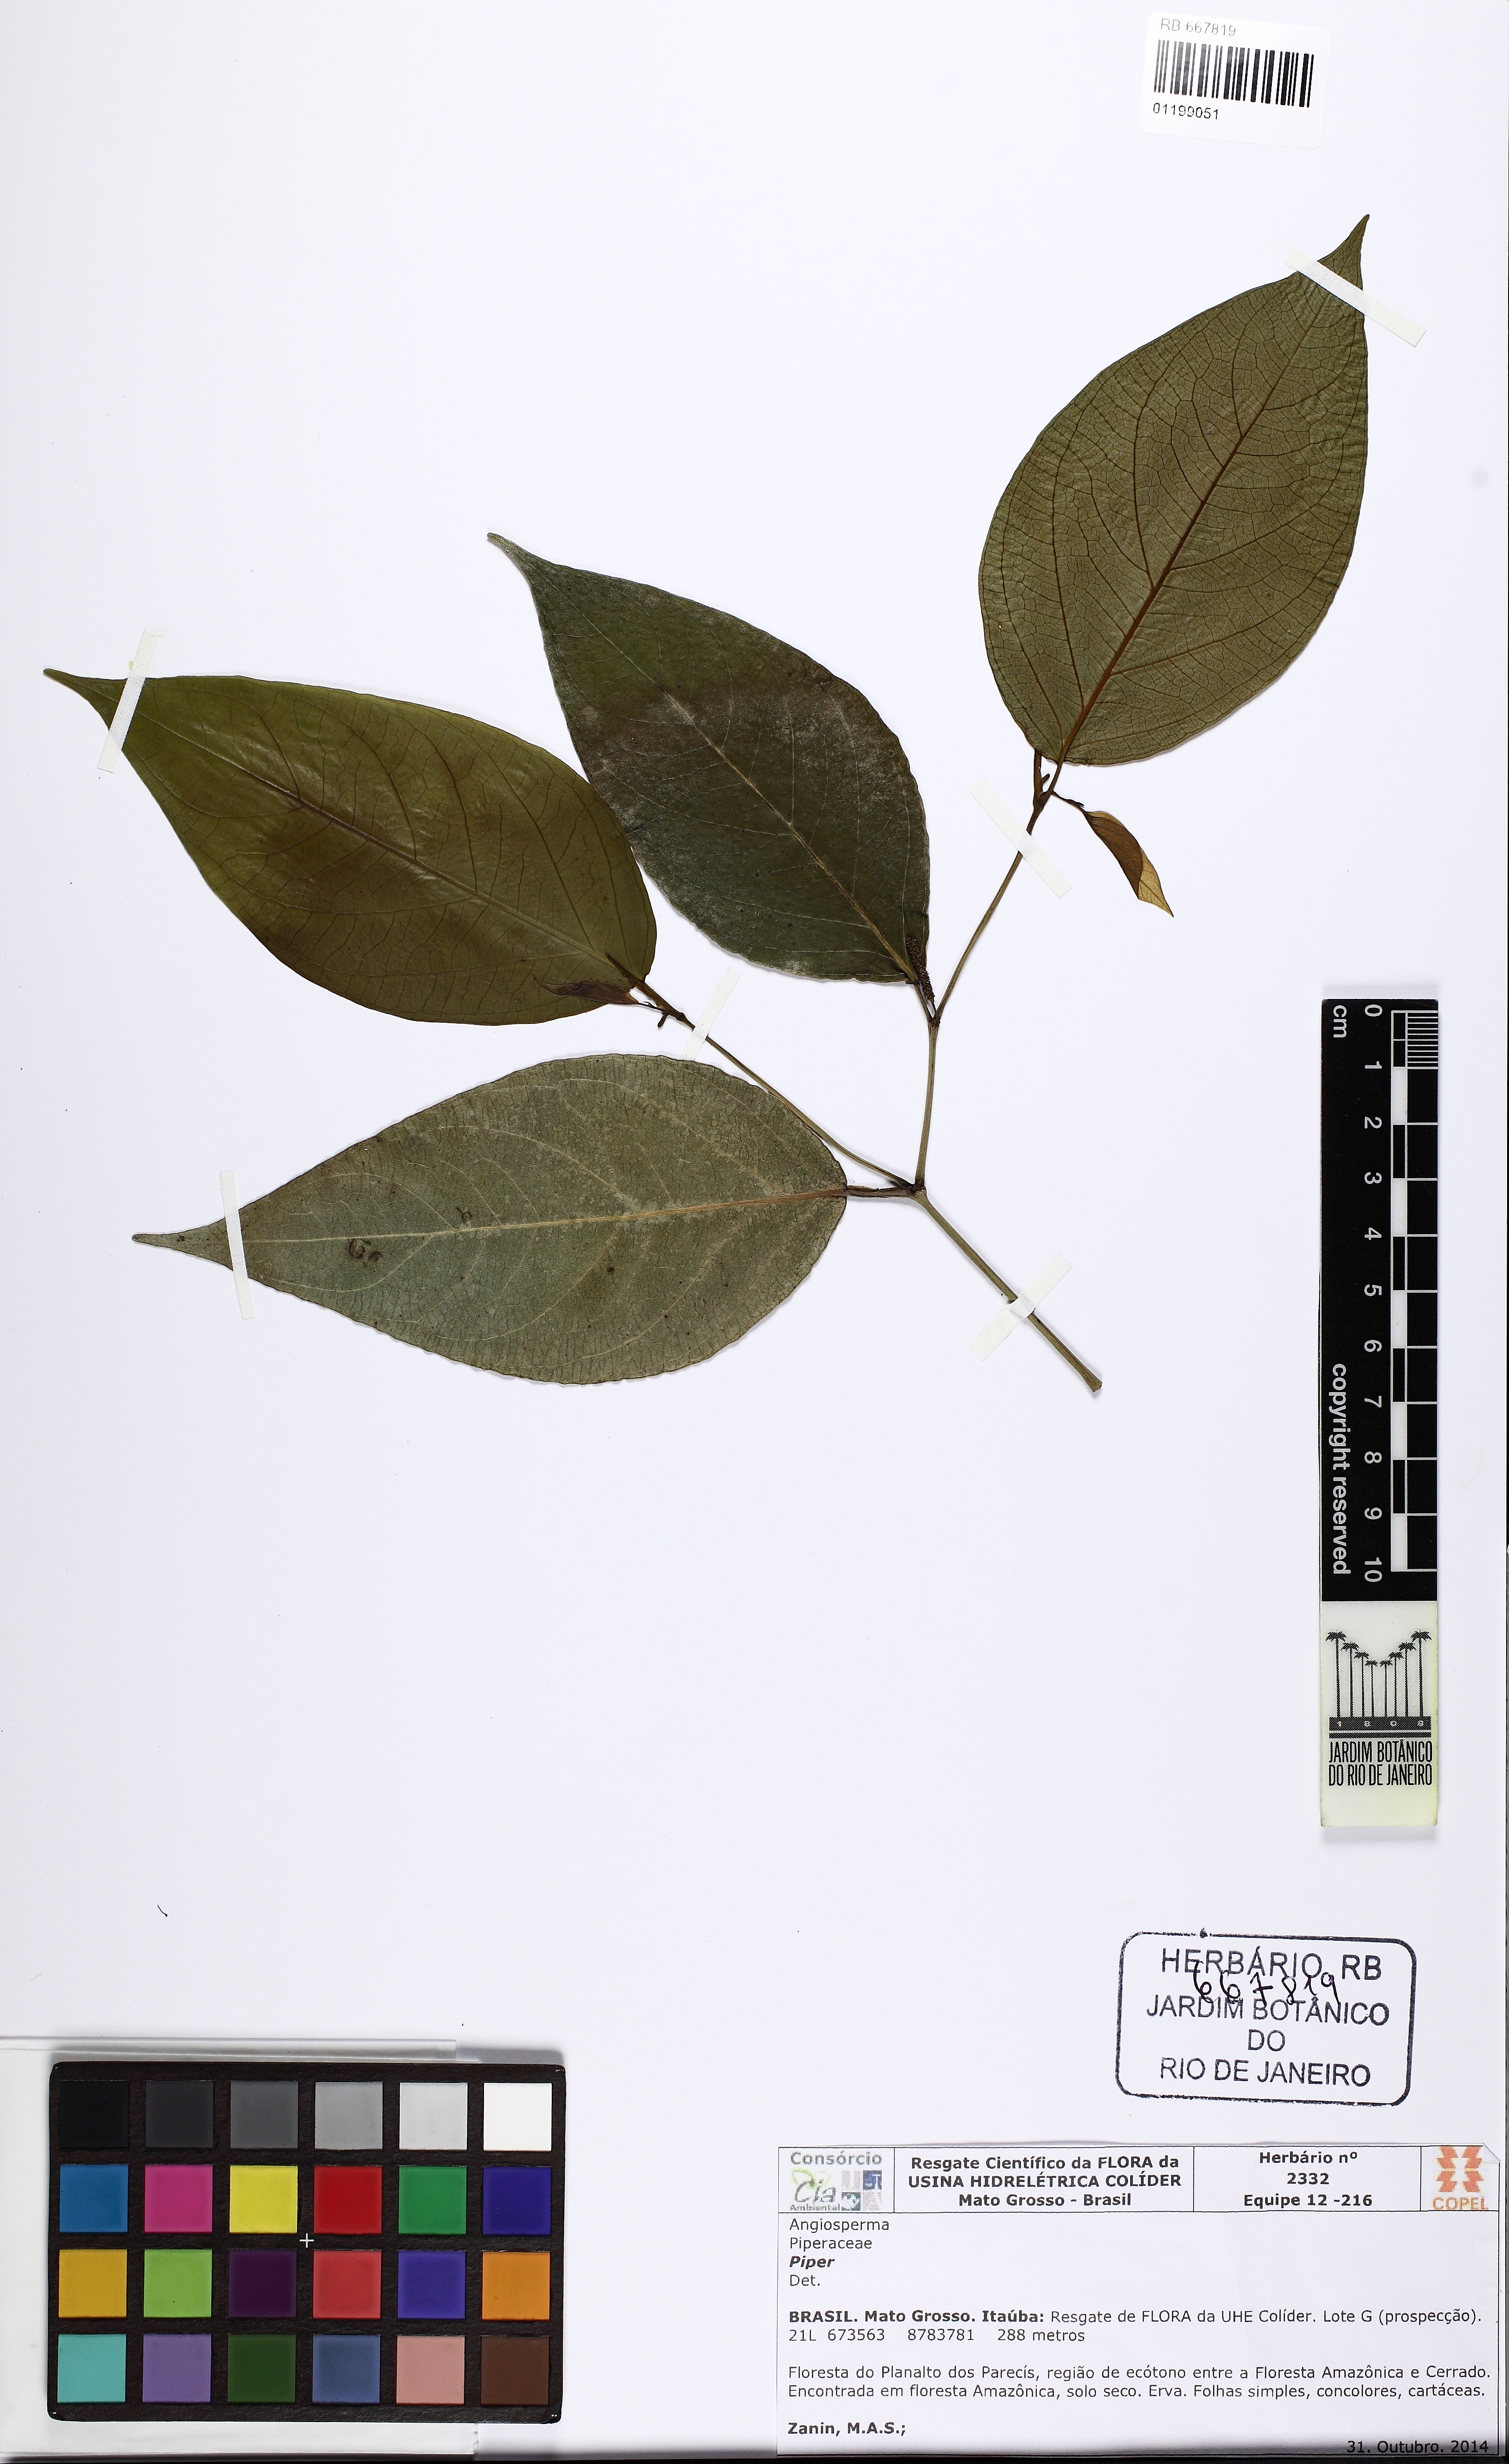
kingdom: Plantae
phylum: Tracheophyta
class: Magnoliopsida
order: Piperales
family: Piperaceae
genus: Piper
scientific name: Piper
